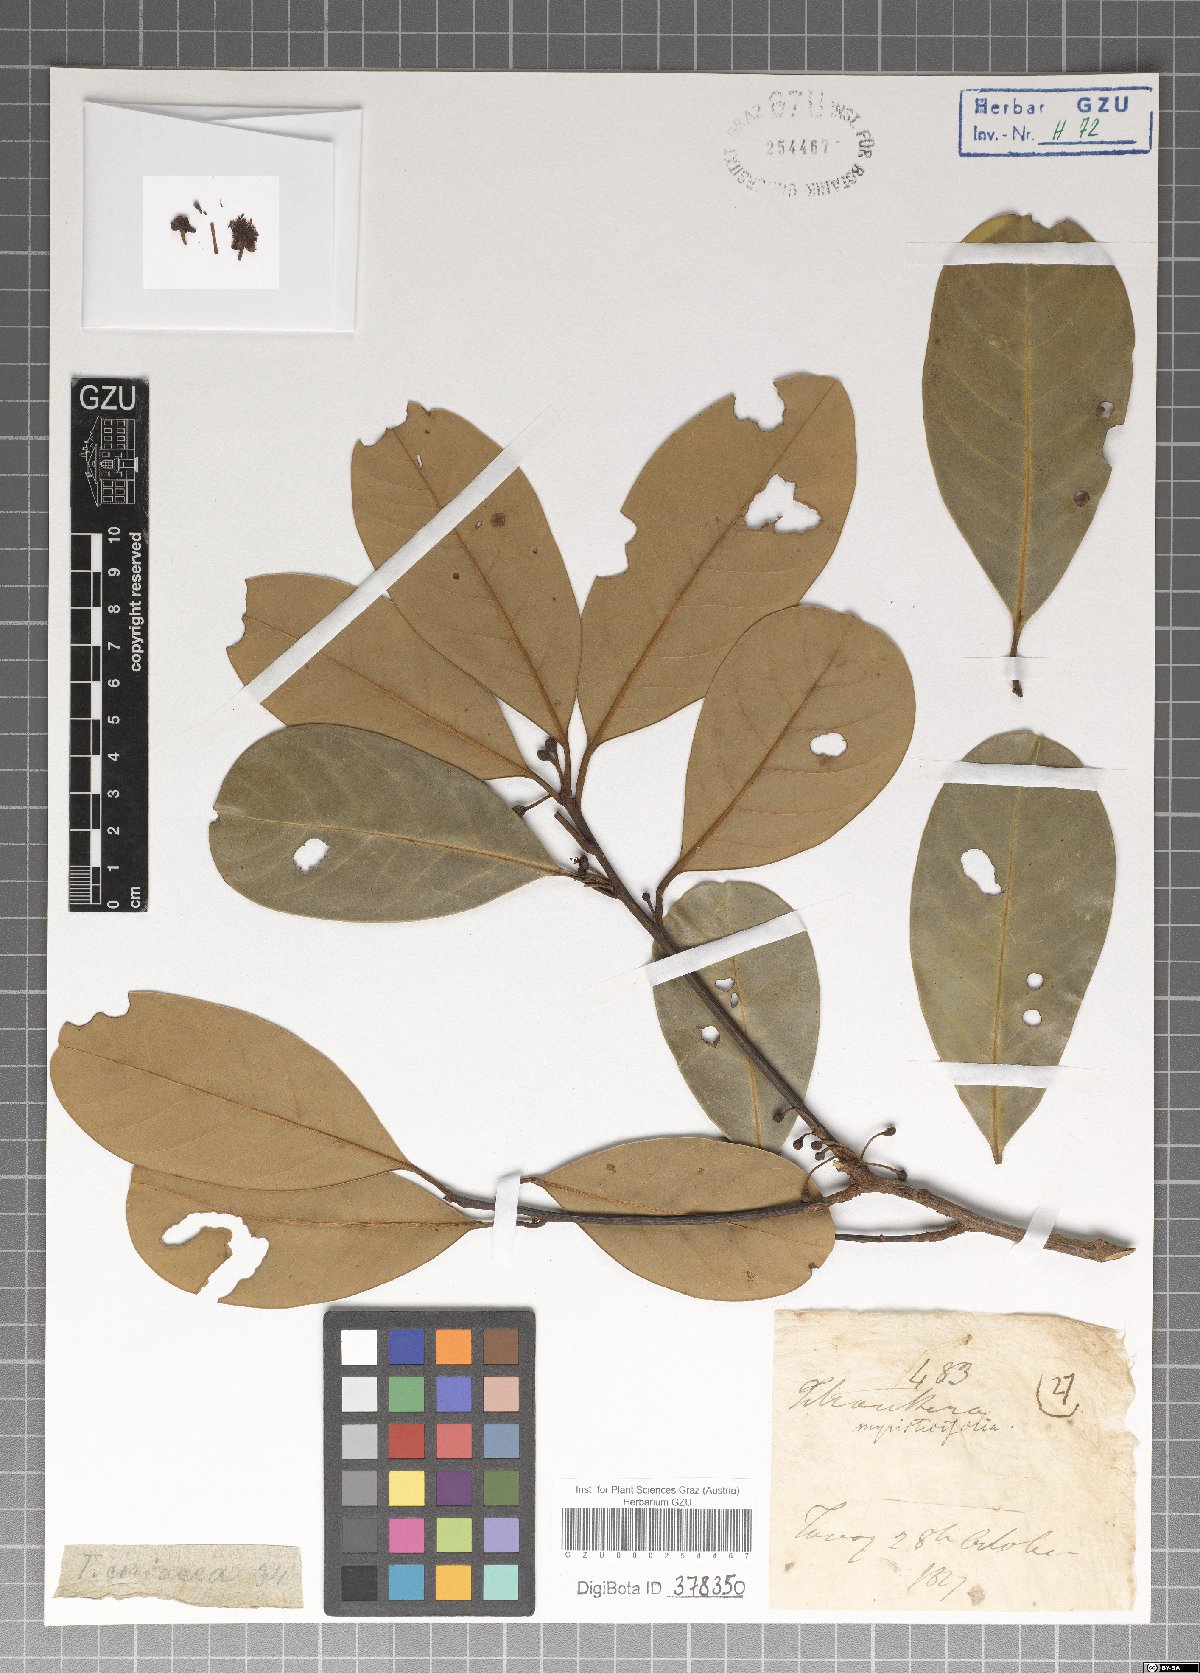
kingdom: Plantae
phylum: Tracheophyta
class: Magnoliopsida
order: Laurales
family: Lauraceae
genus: Litsea
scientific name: Litsea myristicifolia
